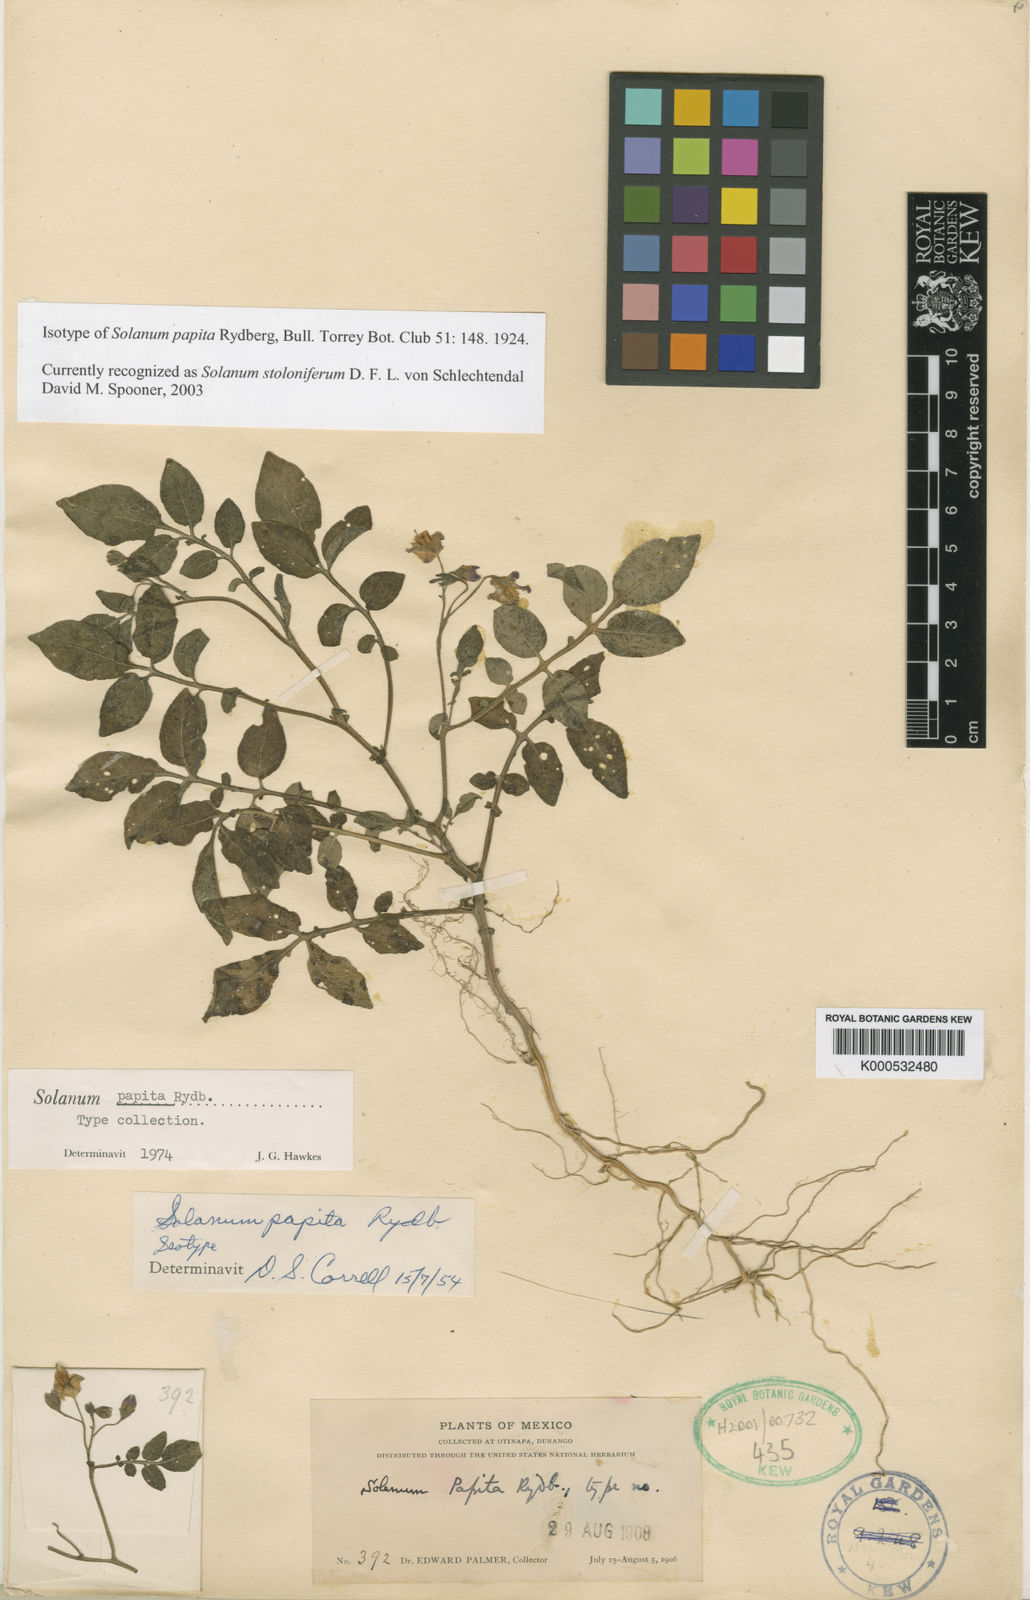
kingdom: Plantae
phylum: Tracheophyta
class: Magnoliopsida
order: Solanales
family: Solanaceae
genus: Solanum
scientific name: Solanum stoloniferum
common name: Fendler's nighshade
